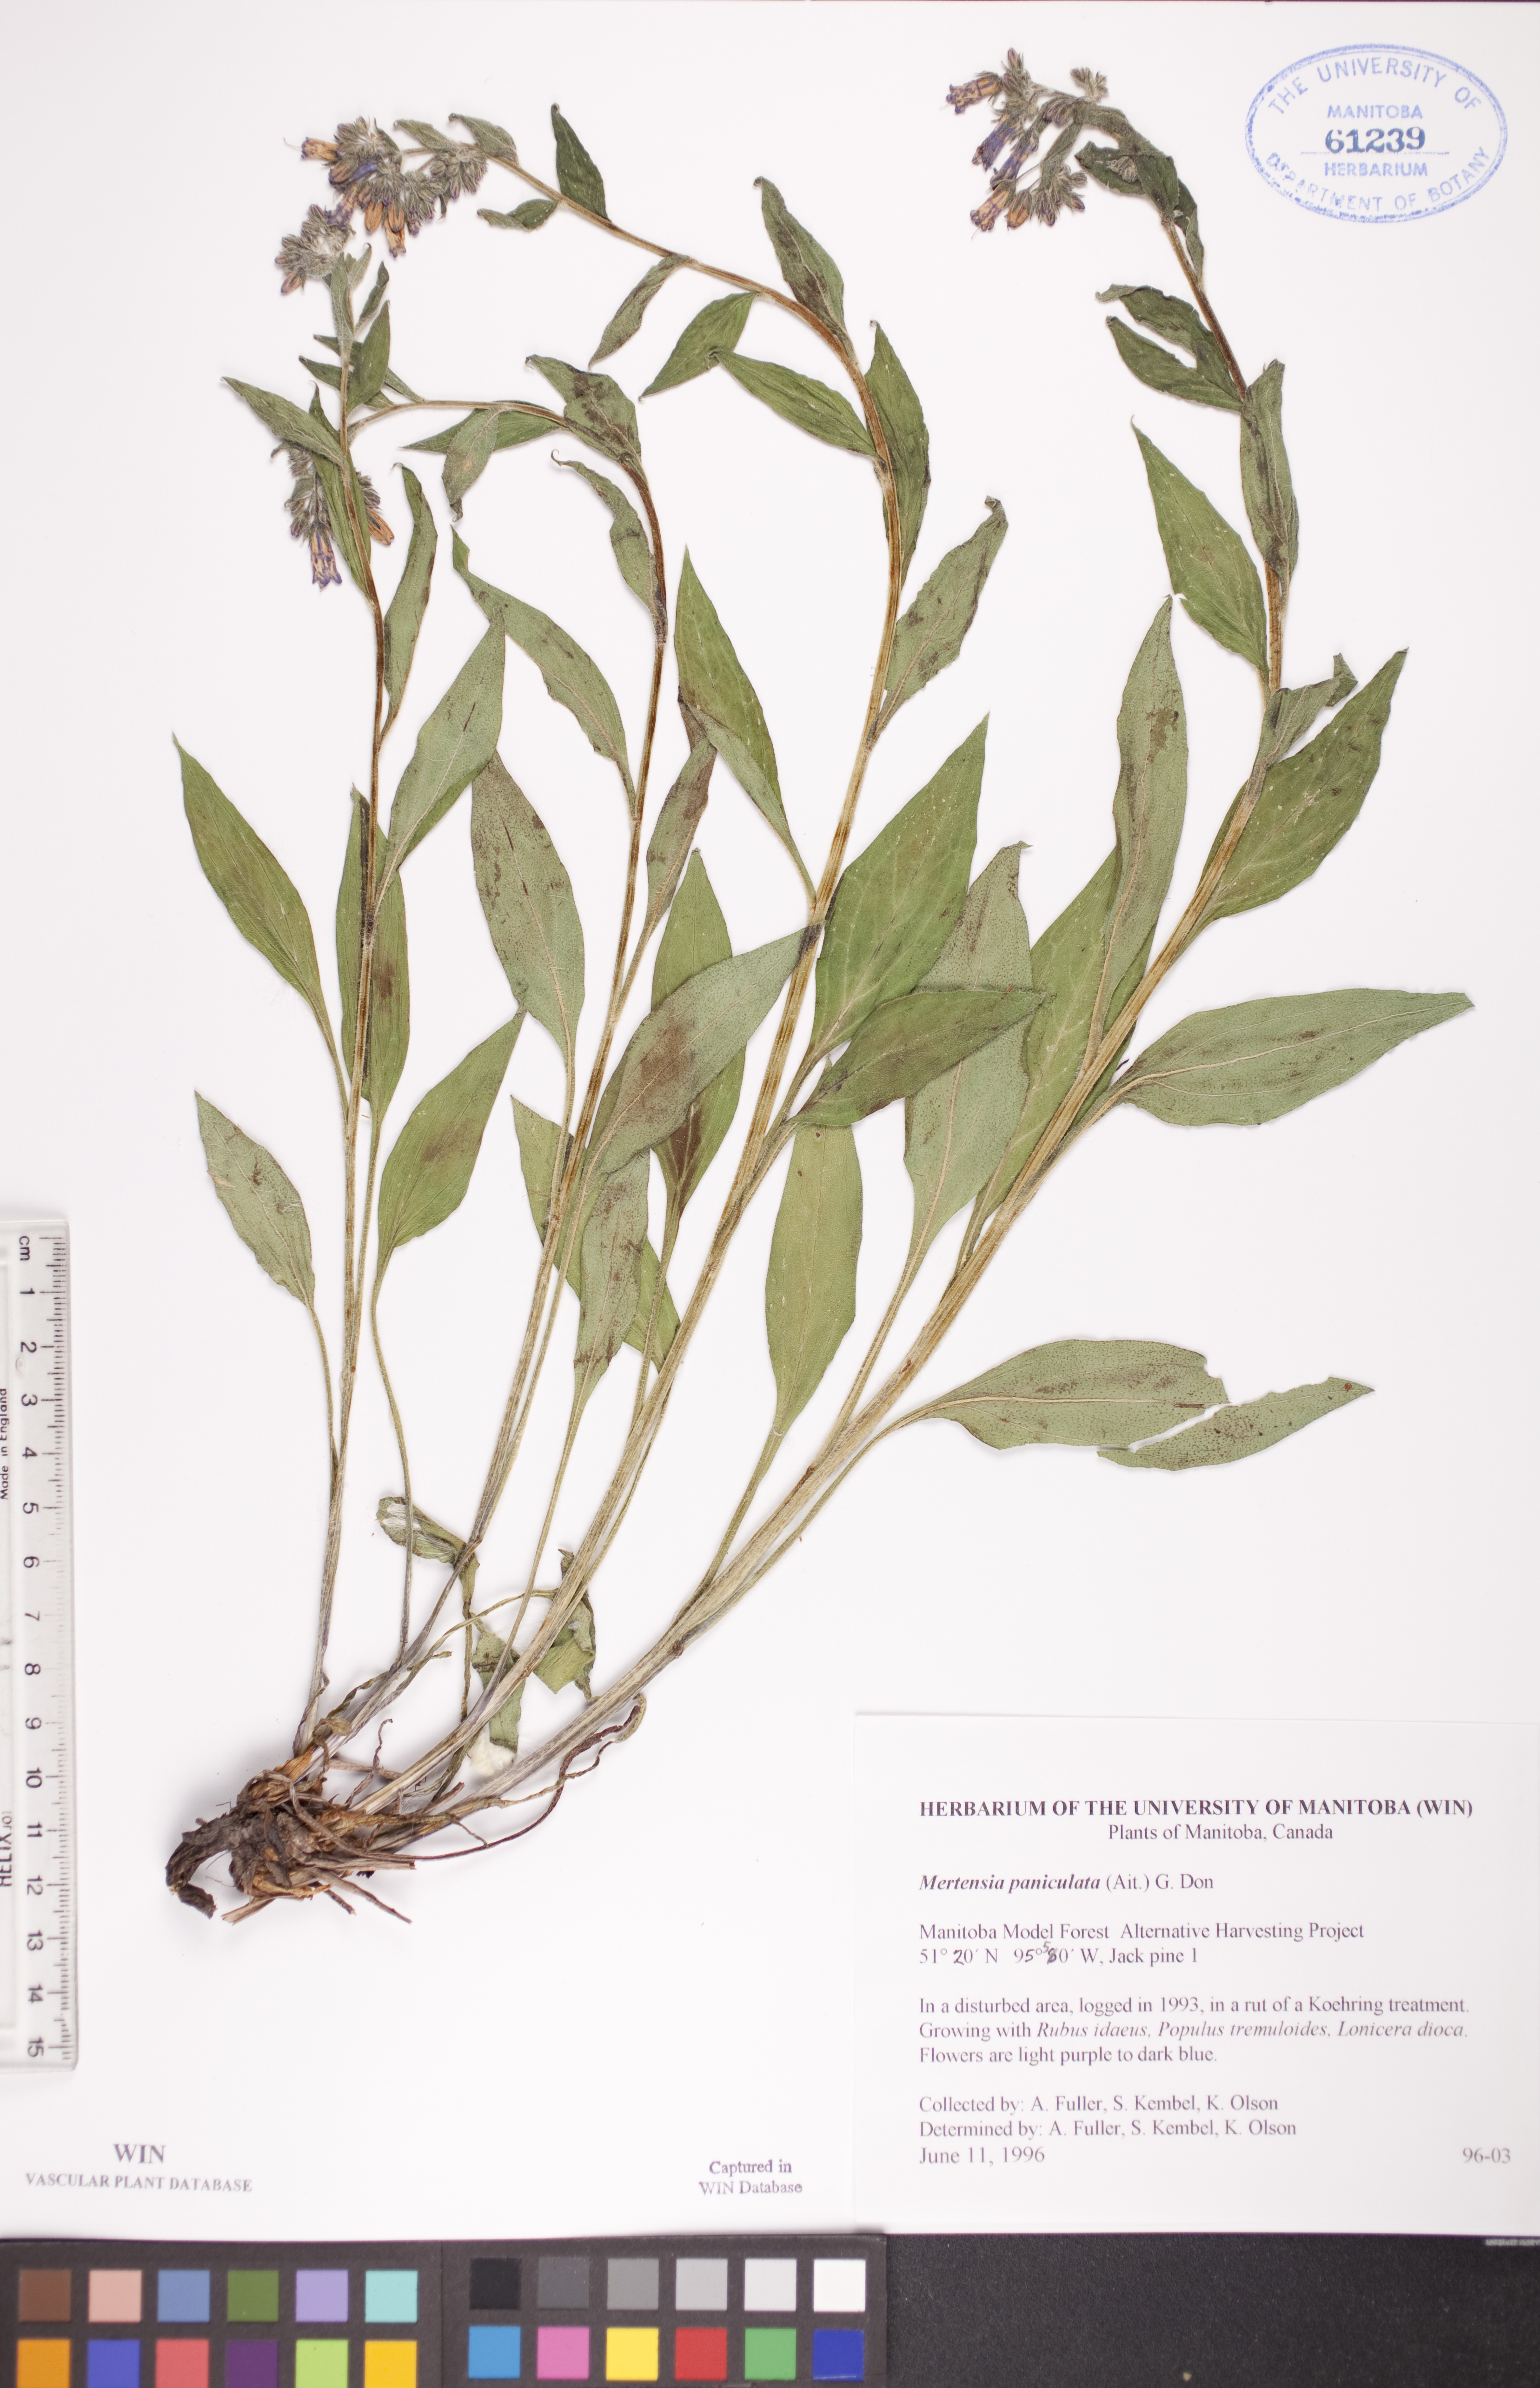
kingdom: Plantae
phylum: Tracheophyta
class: Magnoliopsida
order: Boraginales
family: Boraginaceae
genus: Mertensia
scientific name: Mertensia paniculata
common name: Panicled bluebells
